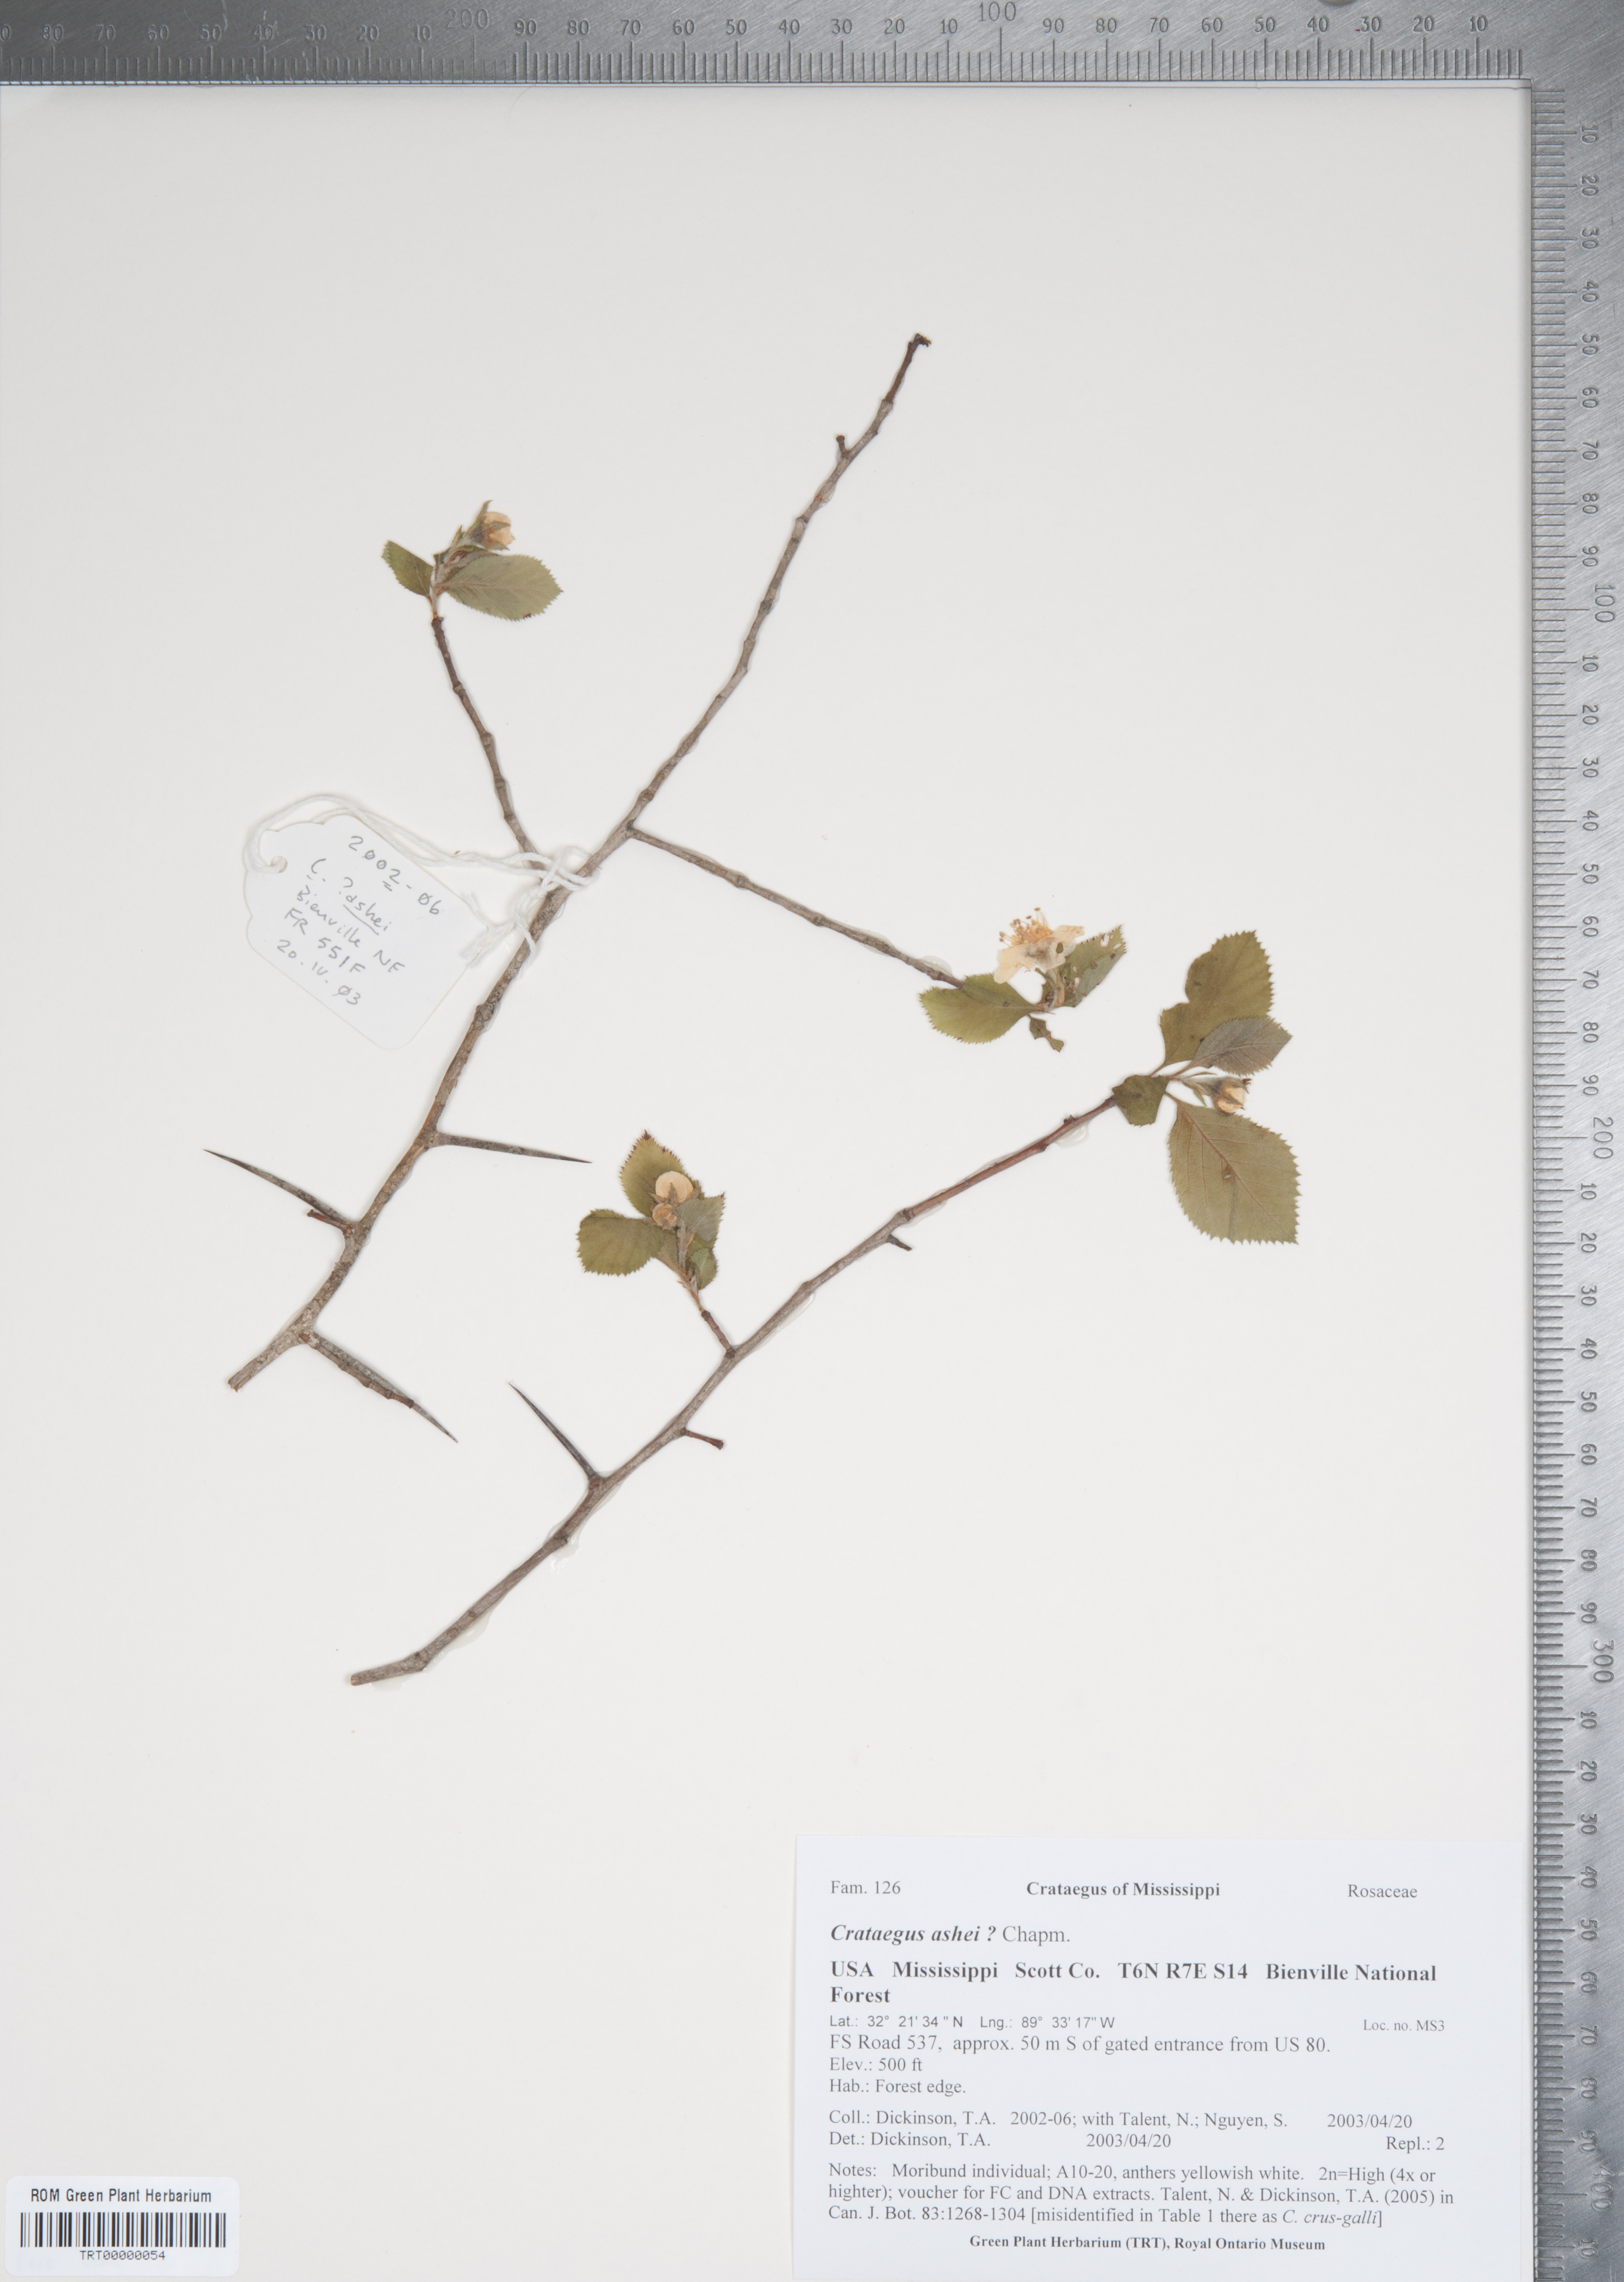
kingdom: Plantae
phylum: Tracheophyta
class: Magnoliopsida
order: Rosales
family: Rosaceae
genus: Crataegus
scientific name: Crataegus ashei
